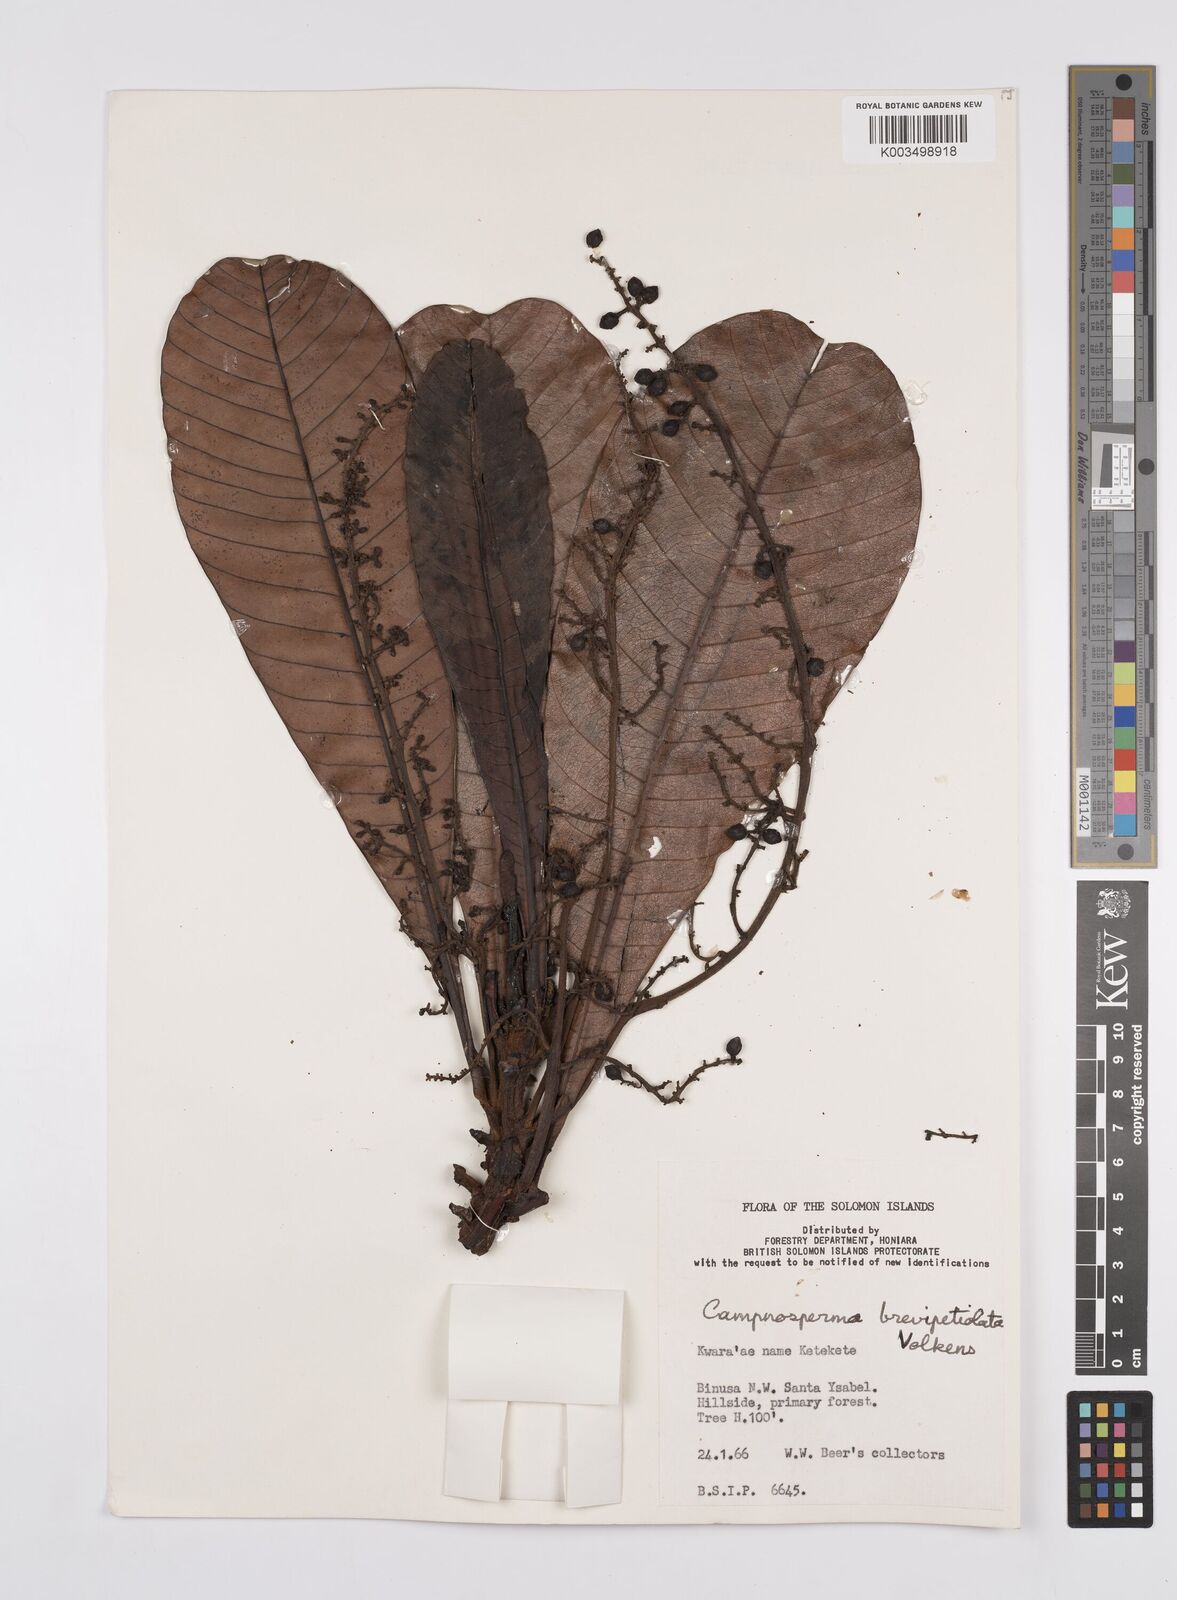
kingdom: Plantae
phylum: Tracheophyta
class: Magnoliopsida
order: Sapindales
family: Anacardiaceae
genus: Campnosperma
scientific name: Campnosperma brevipetiolatum
